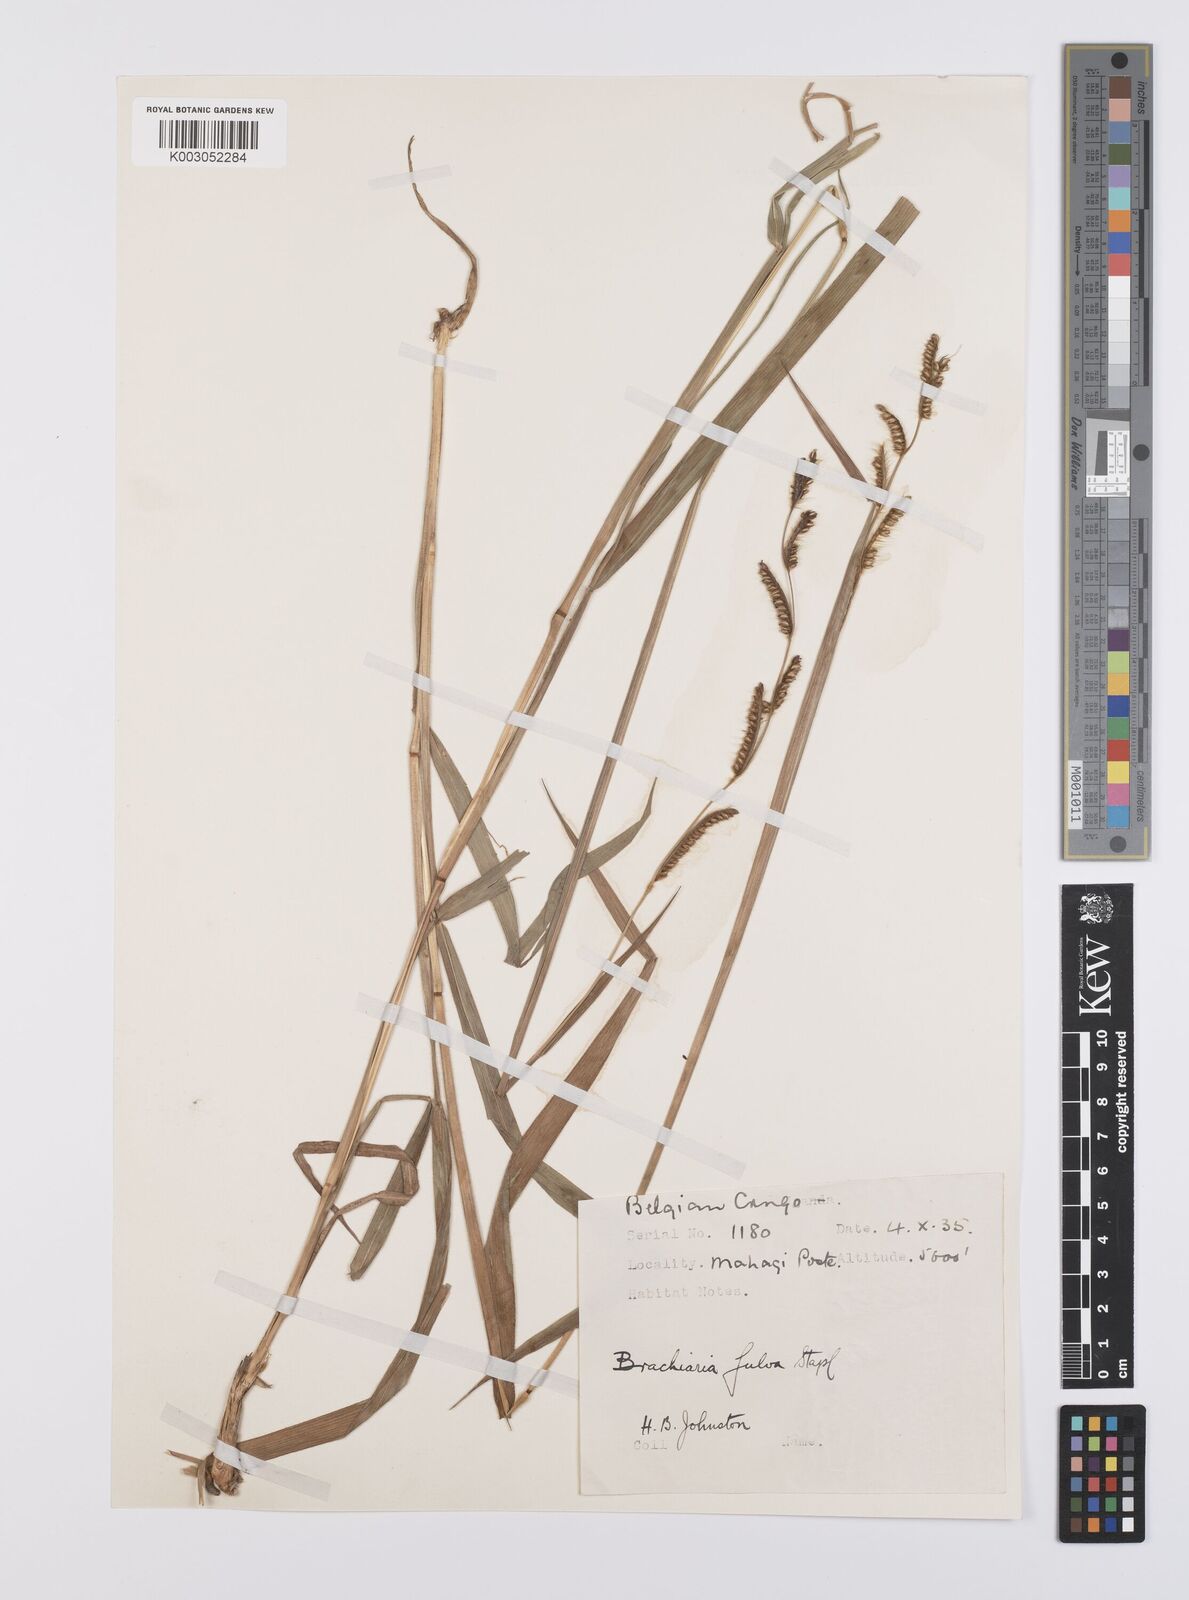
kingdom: Plantae
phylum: Tracheophyta
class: Liliopsida
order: Poales
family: Poaceae
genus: Urochloa
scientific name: Urochloa jubata
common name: Buffalograss
